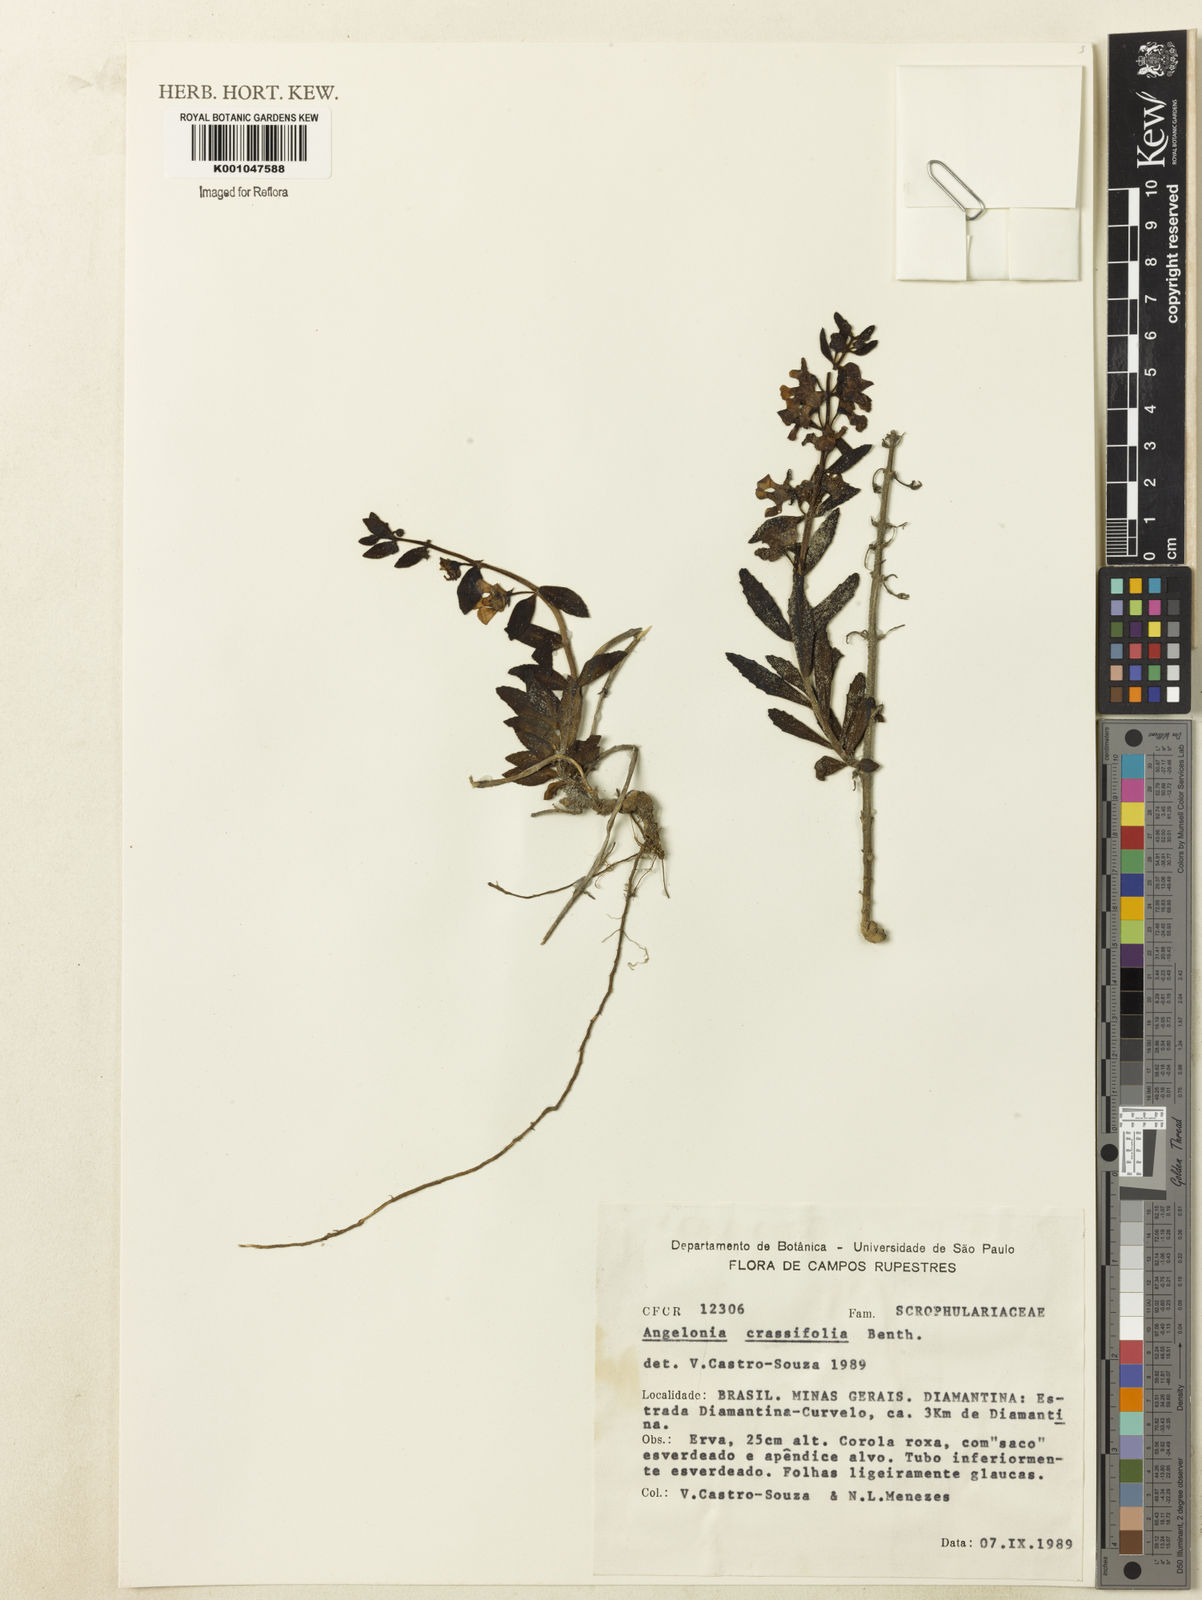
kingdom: Plantae
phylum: Tracheophyta
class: Magnoliopsida
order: Lamiales
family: Plantaginaceae
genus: Angelonia
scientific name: Angelonia crassifolia
